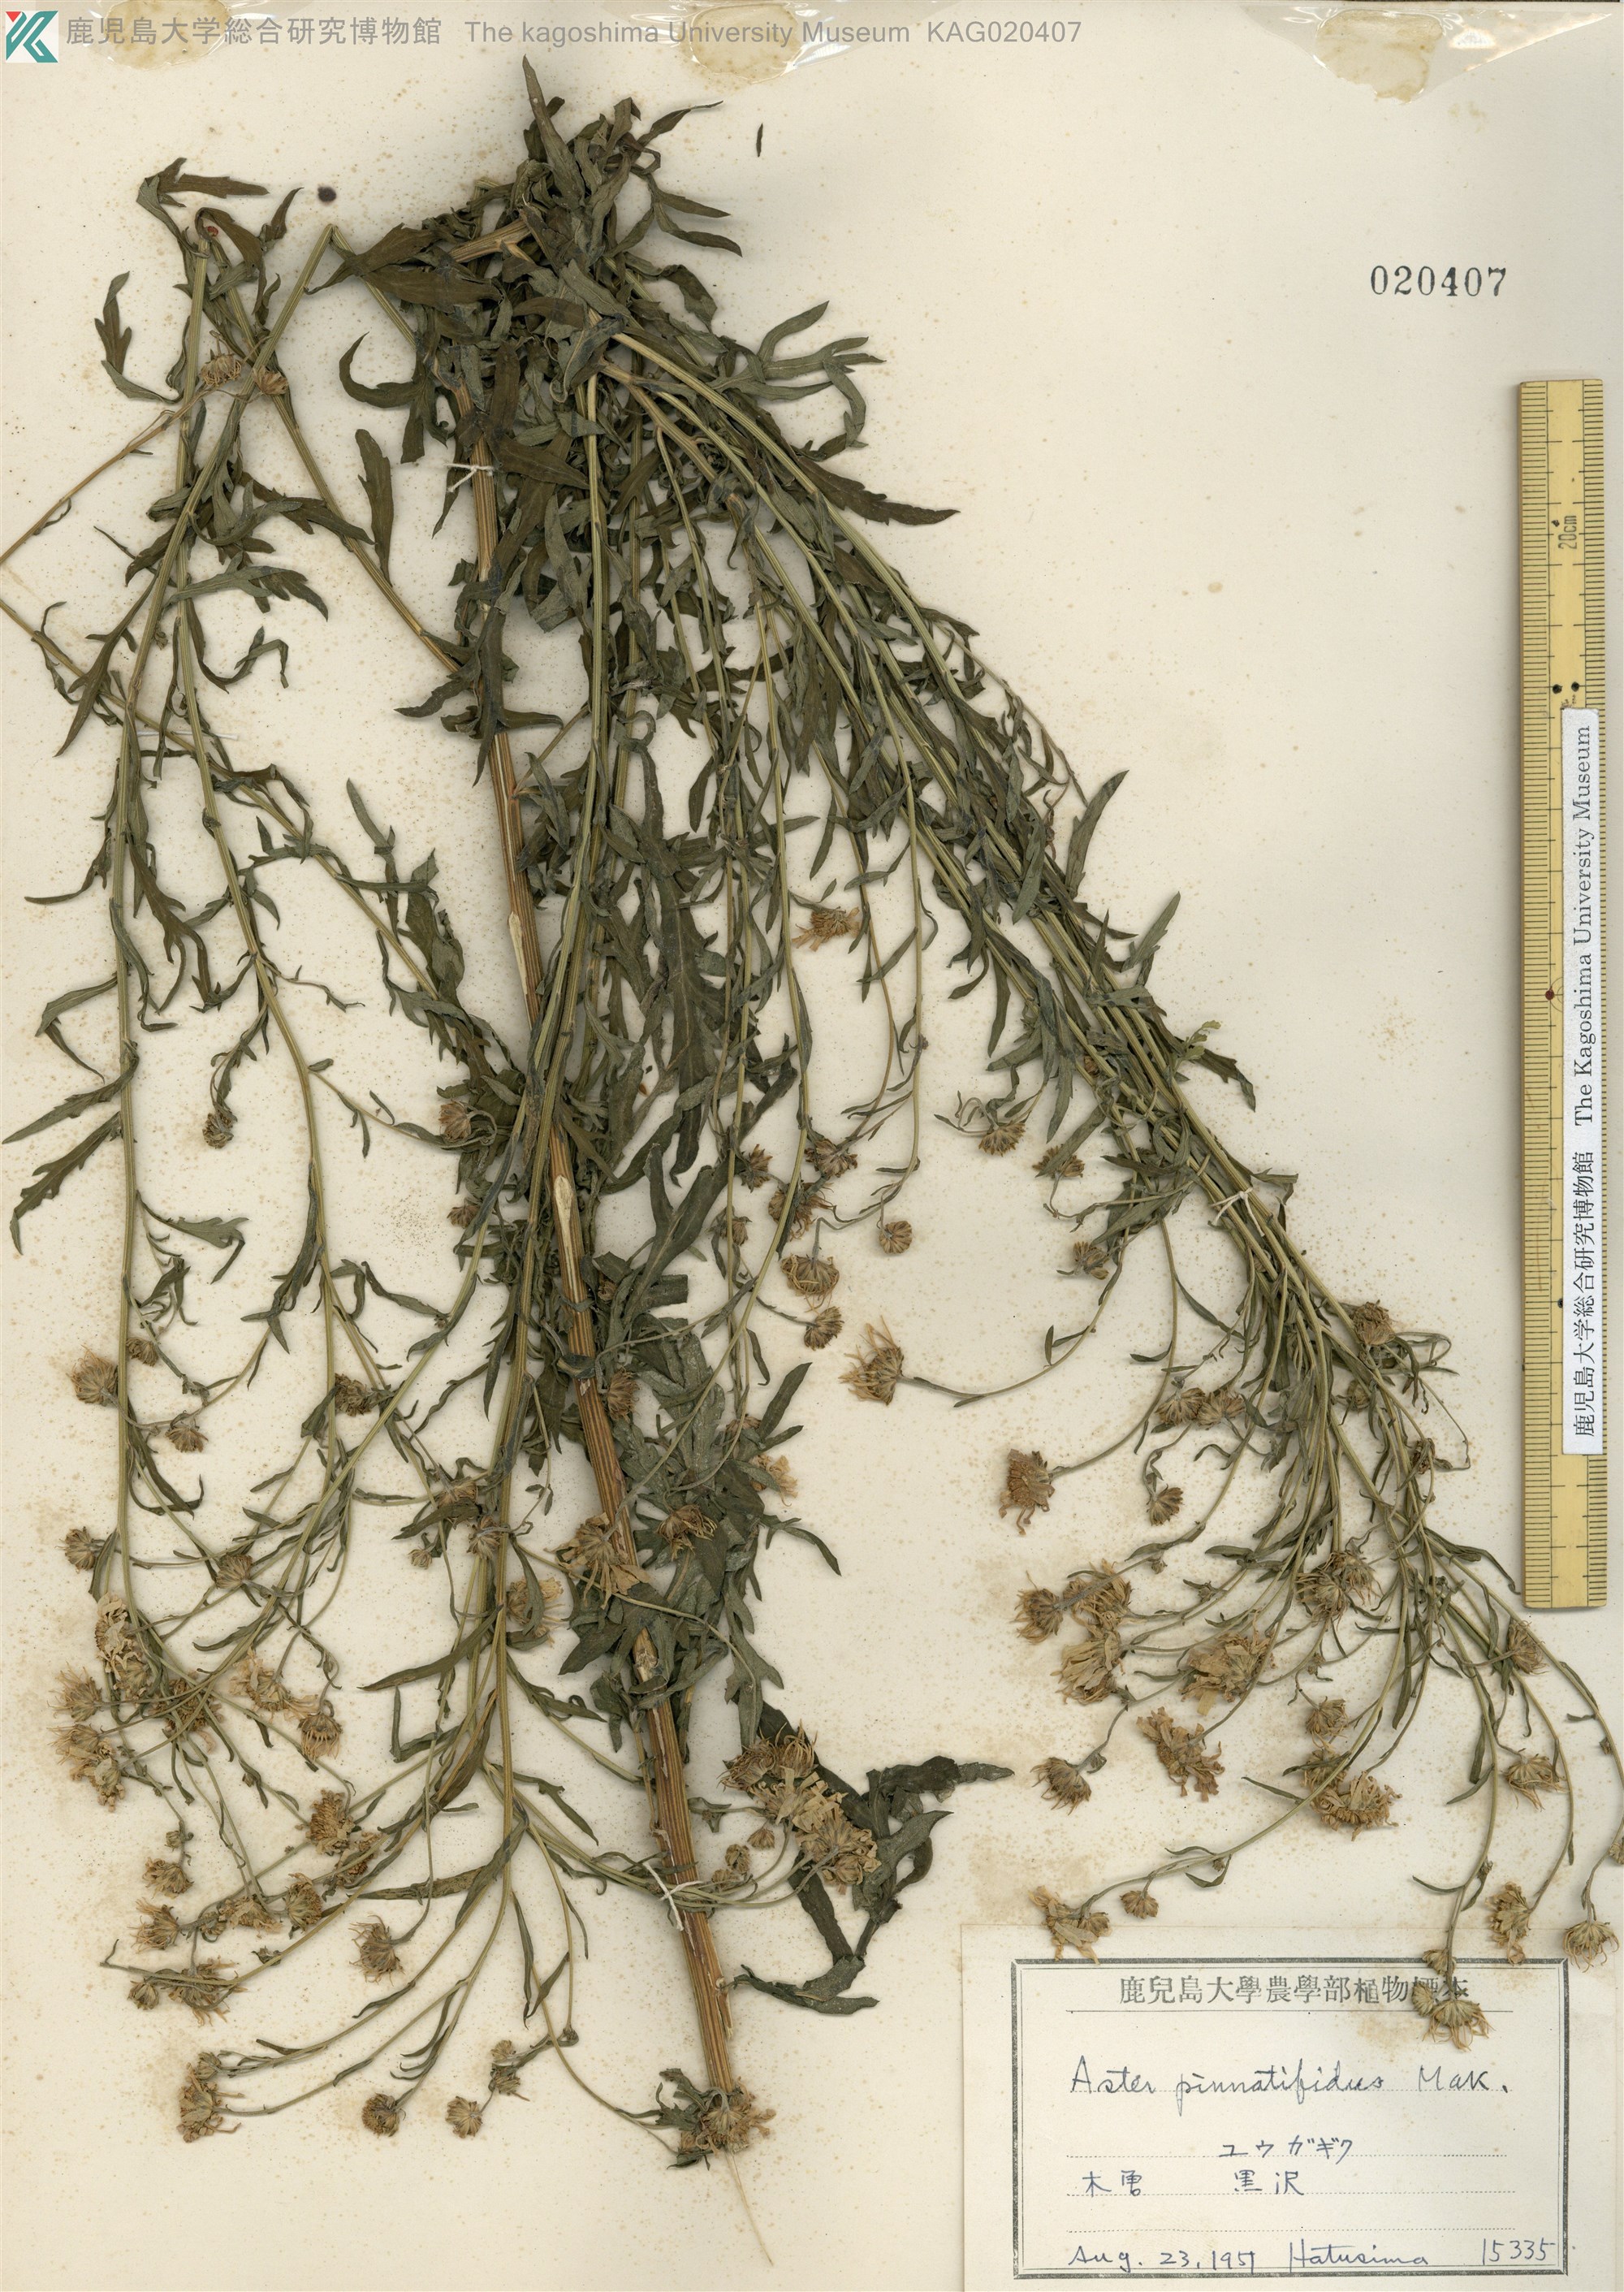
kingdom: Plantae
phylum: Tracheophyta
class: Magnoliopsida
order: Asterales
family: Asteraceae
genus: Kalimeris
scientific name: Kalimeris pinnatifida
